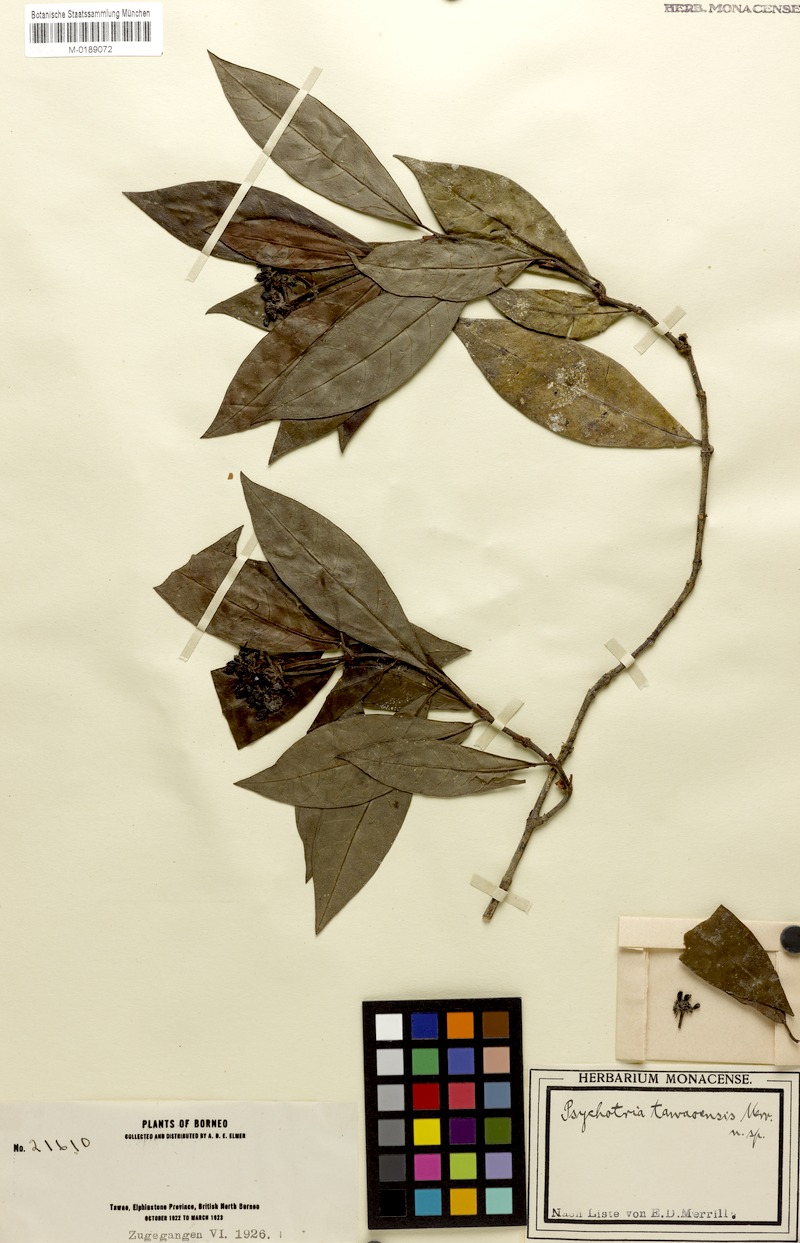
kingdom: Plantae
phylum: Tracheophyta
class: Magnoliopsida
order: Gentianales
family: Rubiaceae
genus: Psychotria
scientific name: Psychotria tawaensis
